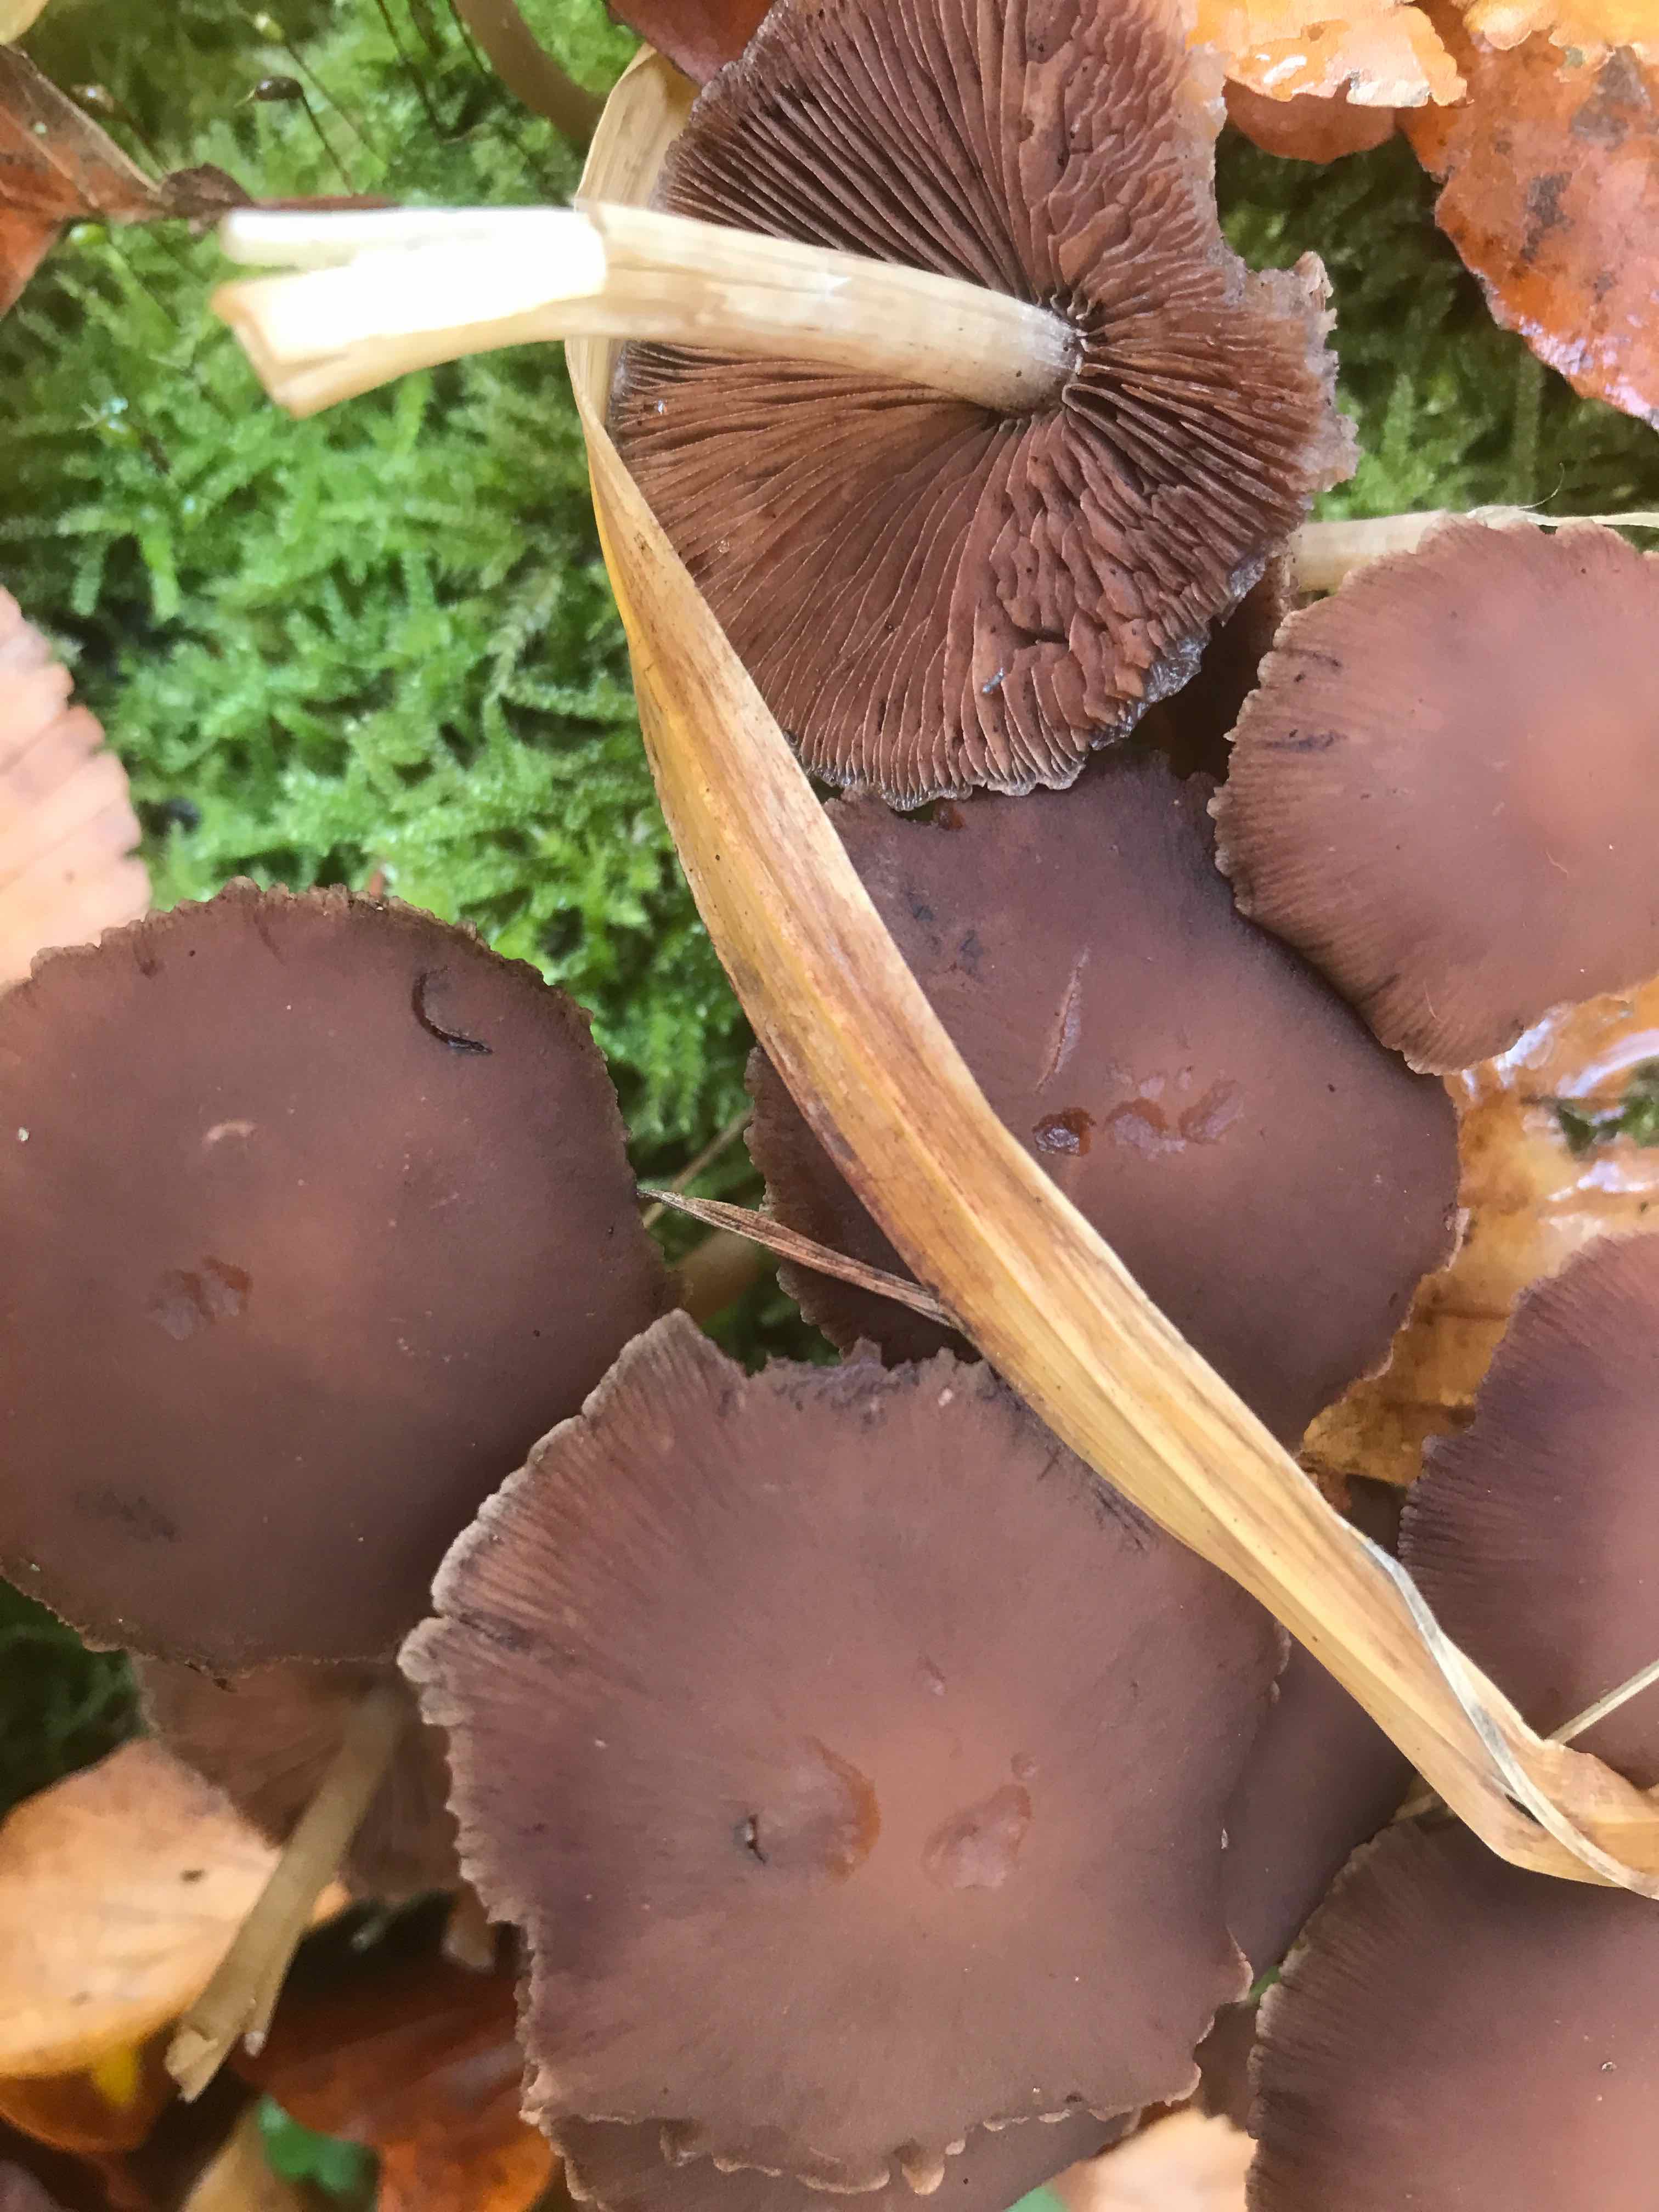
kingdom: Fungi
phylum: Basidiomycota
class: Agaricomycetes
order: Agaricales
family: Psathyrellaceae
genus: Psathyrella
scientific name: Psathyrella piluliformis
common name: lysstokket mørkhat
